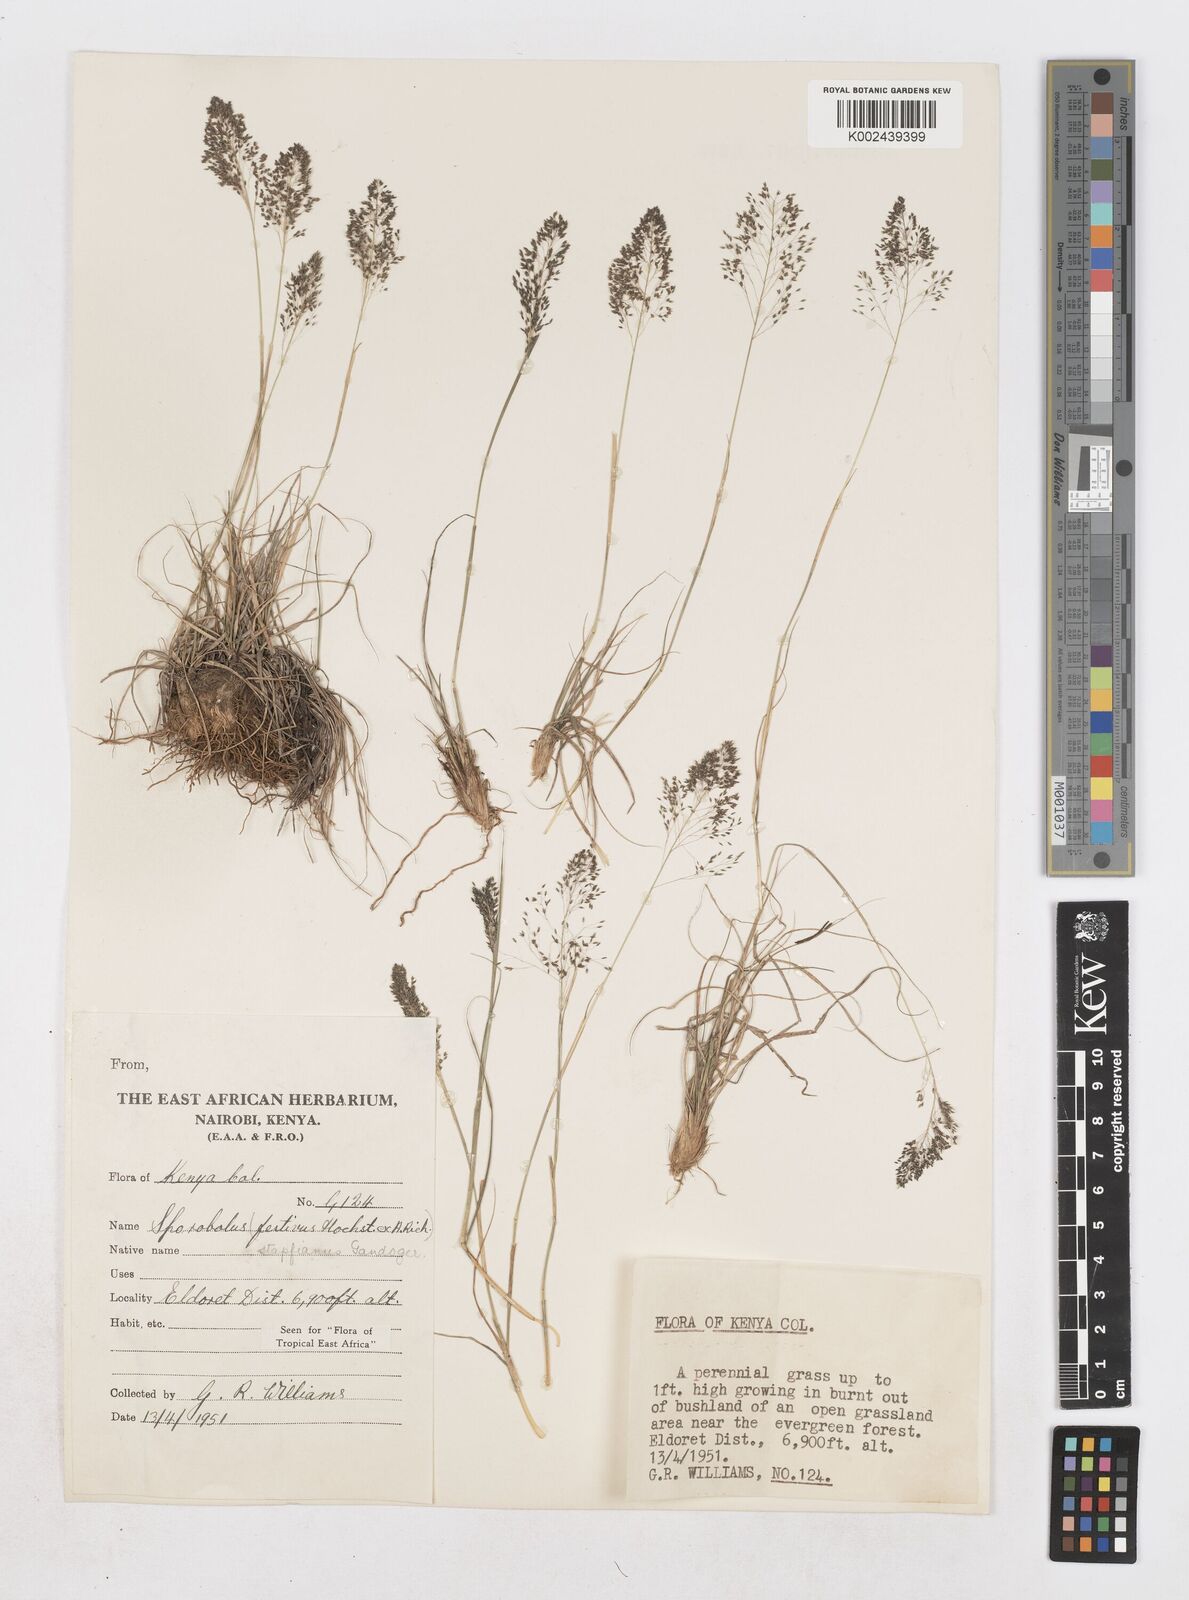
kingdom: Plantae
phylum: Tracheophyta
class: Liliopsida
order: Poales
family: Poaceae
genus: Sporobolus
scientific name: Sporobolus stapfianus
